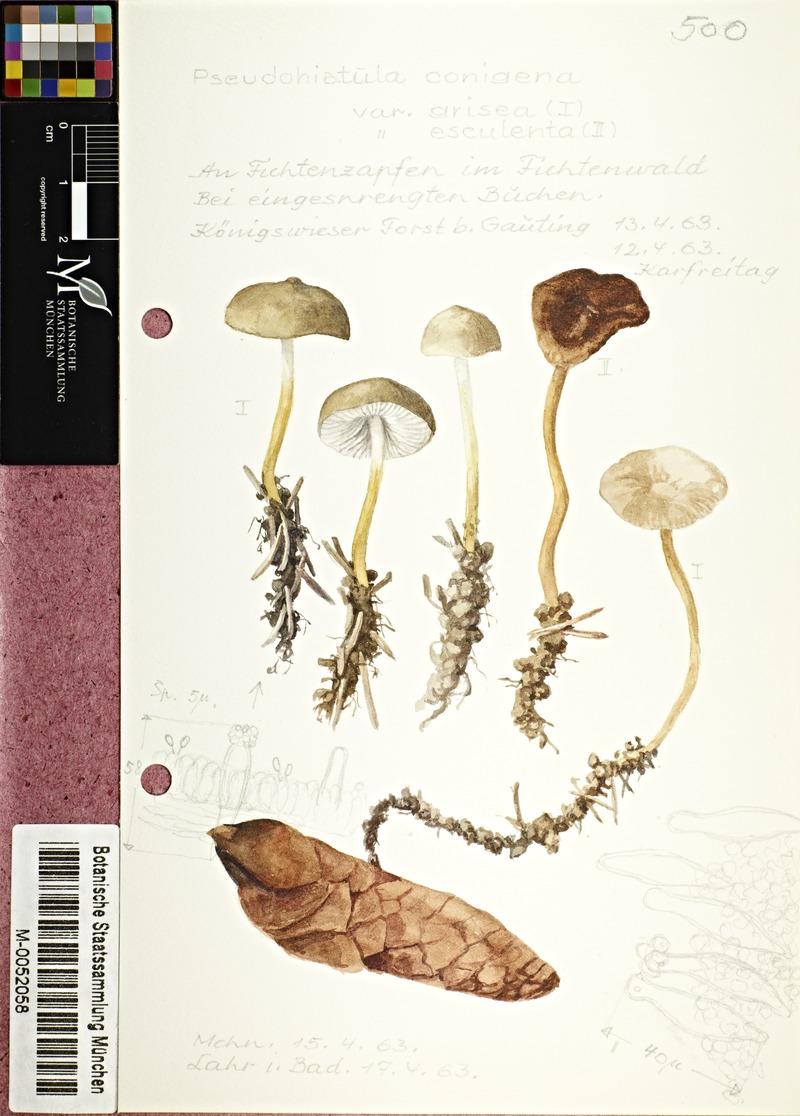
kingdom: Fungi
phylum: Basidiomycota
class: Agaricomycetes
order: Agaricales
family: Physalacriaceae
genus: Strobilurus
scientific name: Strobilurus esculentus
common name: Sprucecone cap
